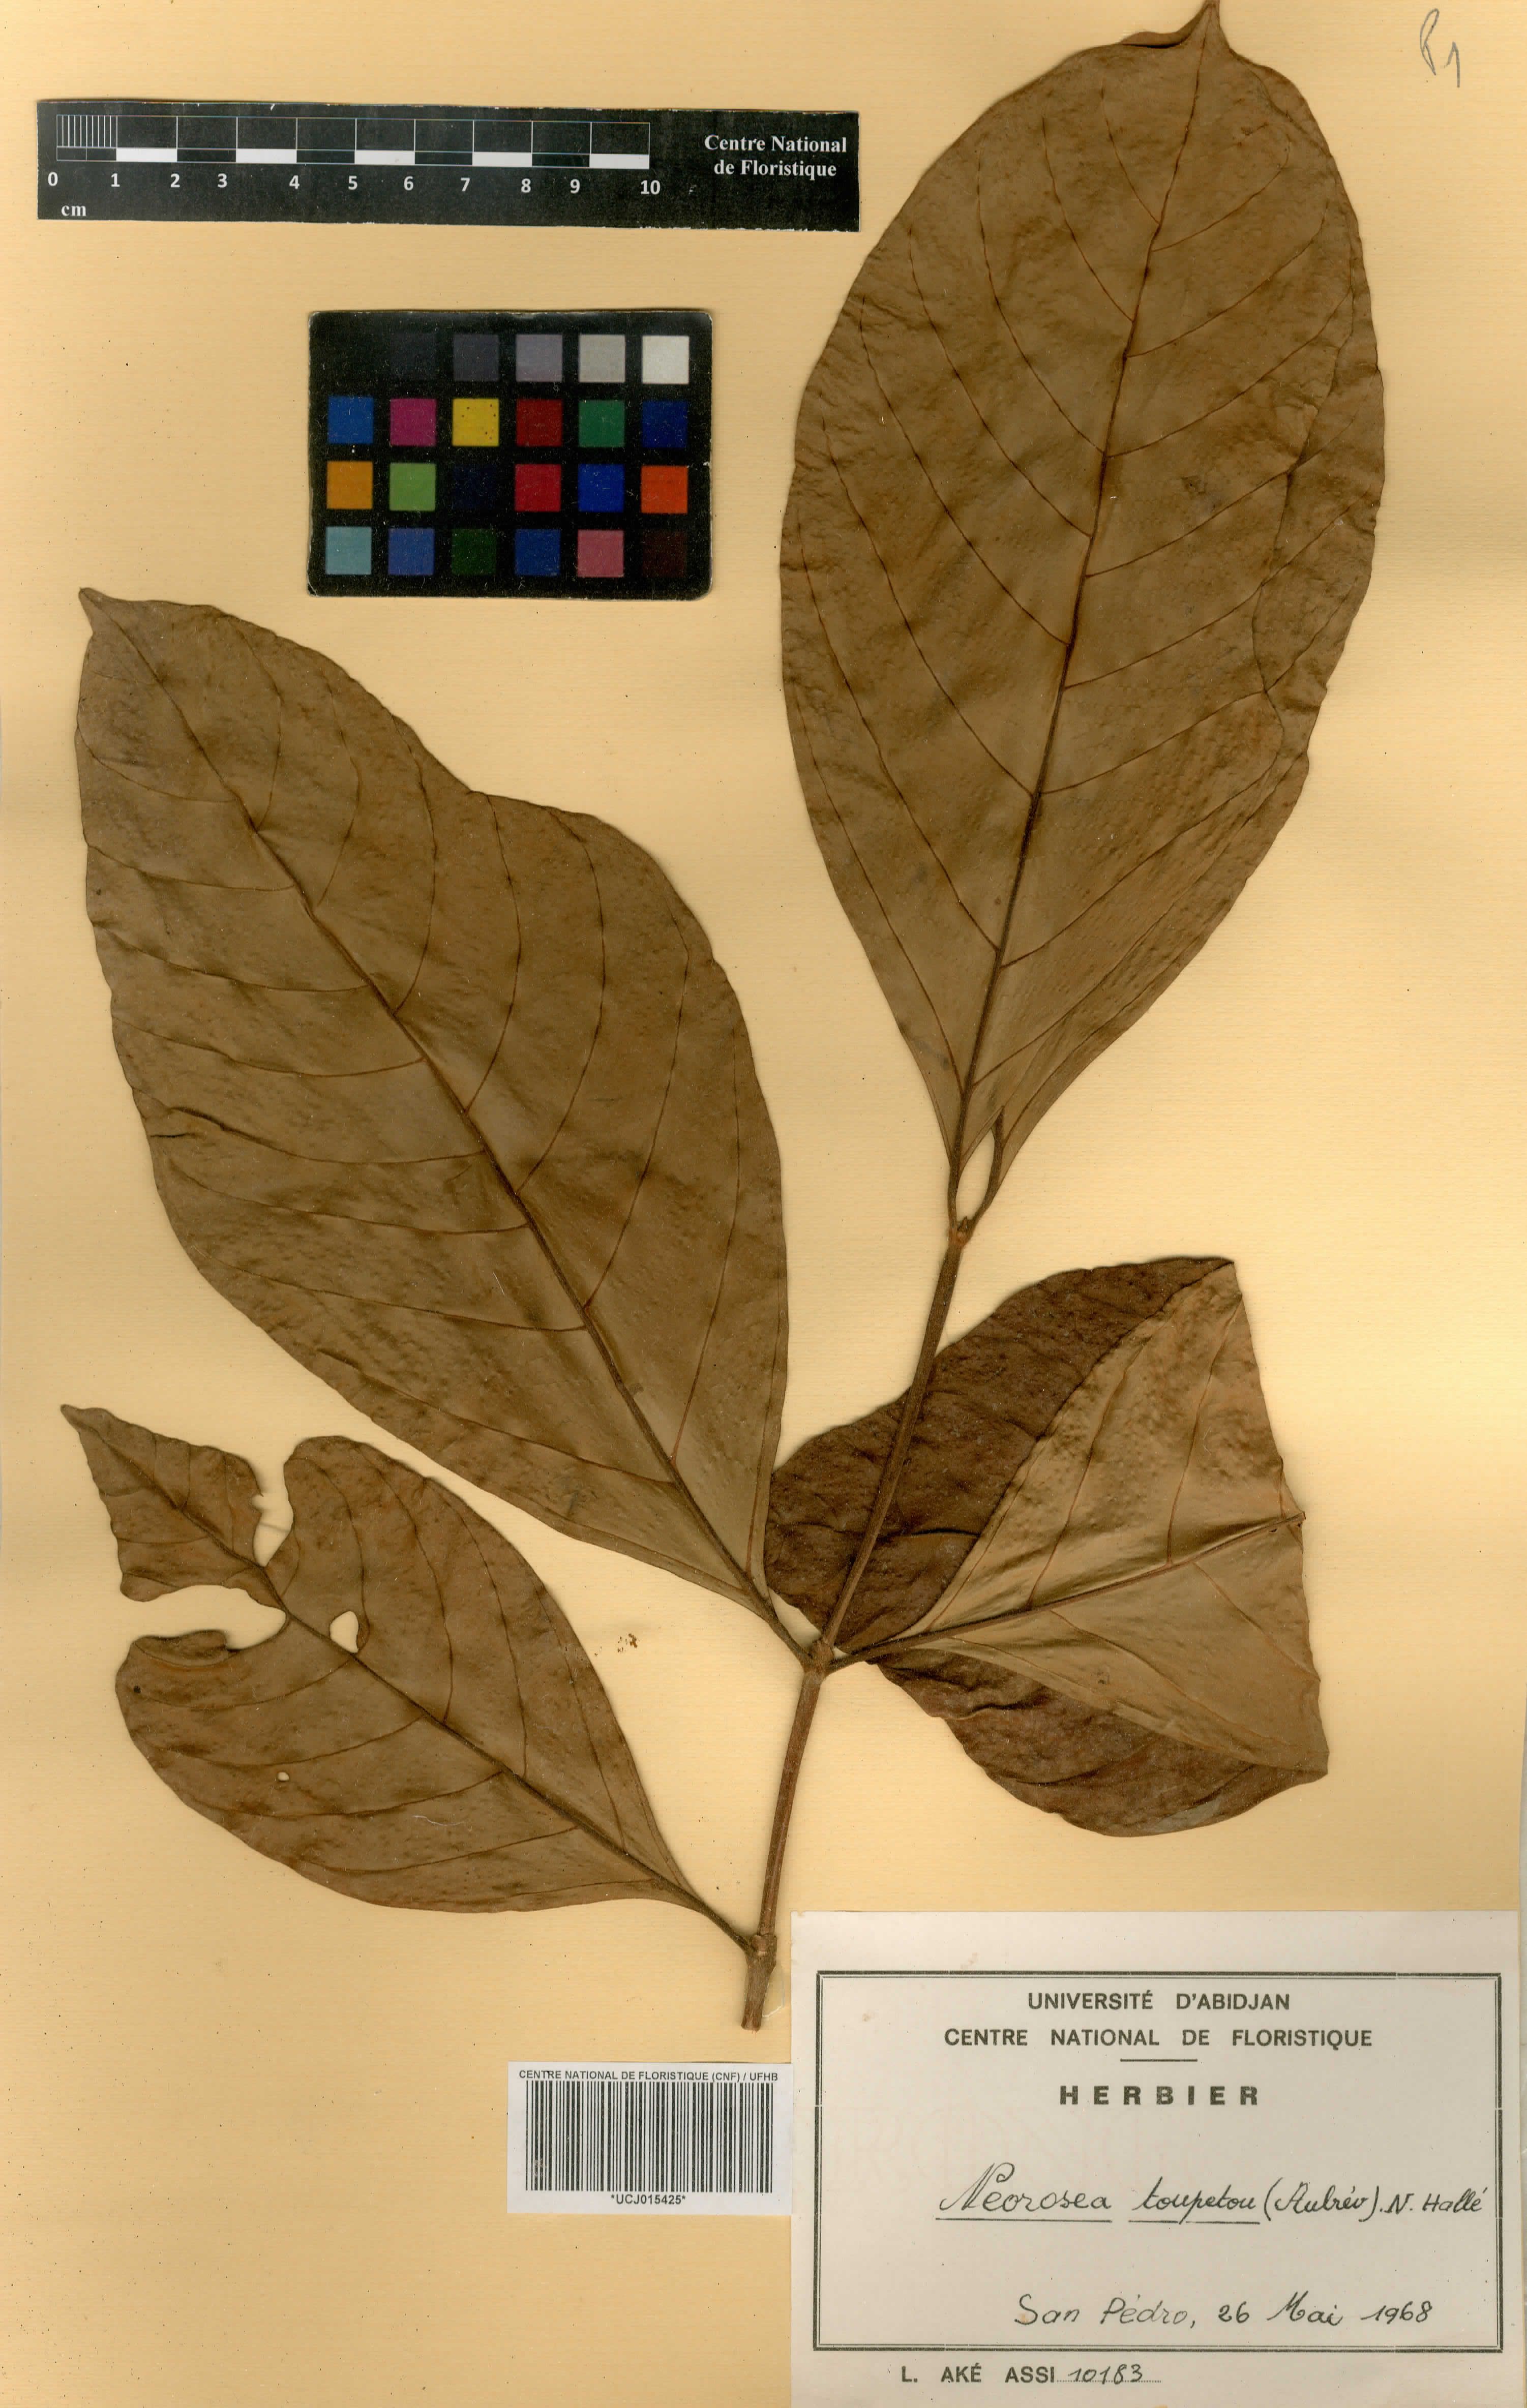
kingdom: Plantae
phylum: Tracheophyta
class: Magnoliopsida
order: Gentianales
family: Rubiaceae
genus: Sericanthe
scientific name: Sericanthe toupetou
